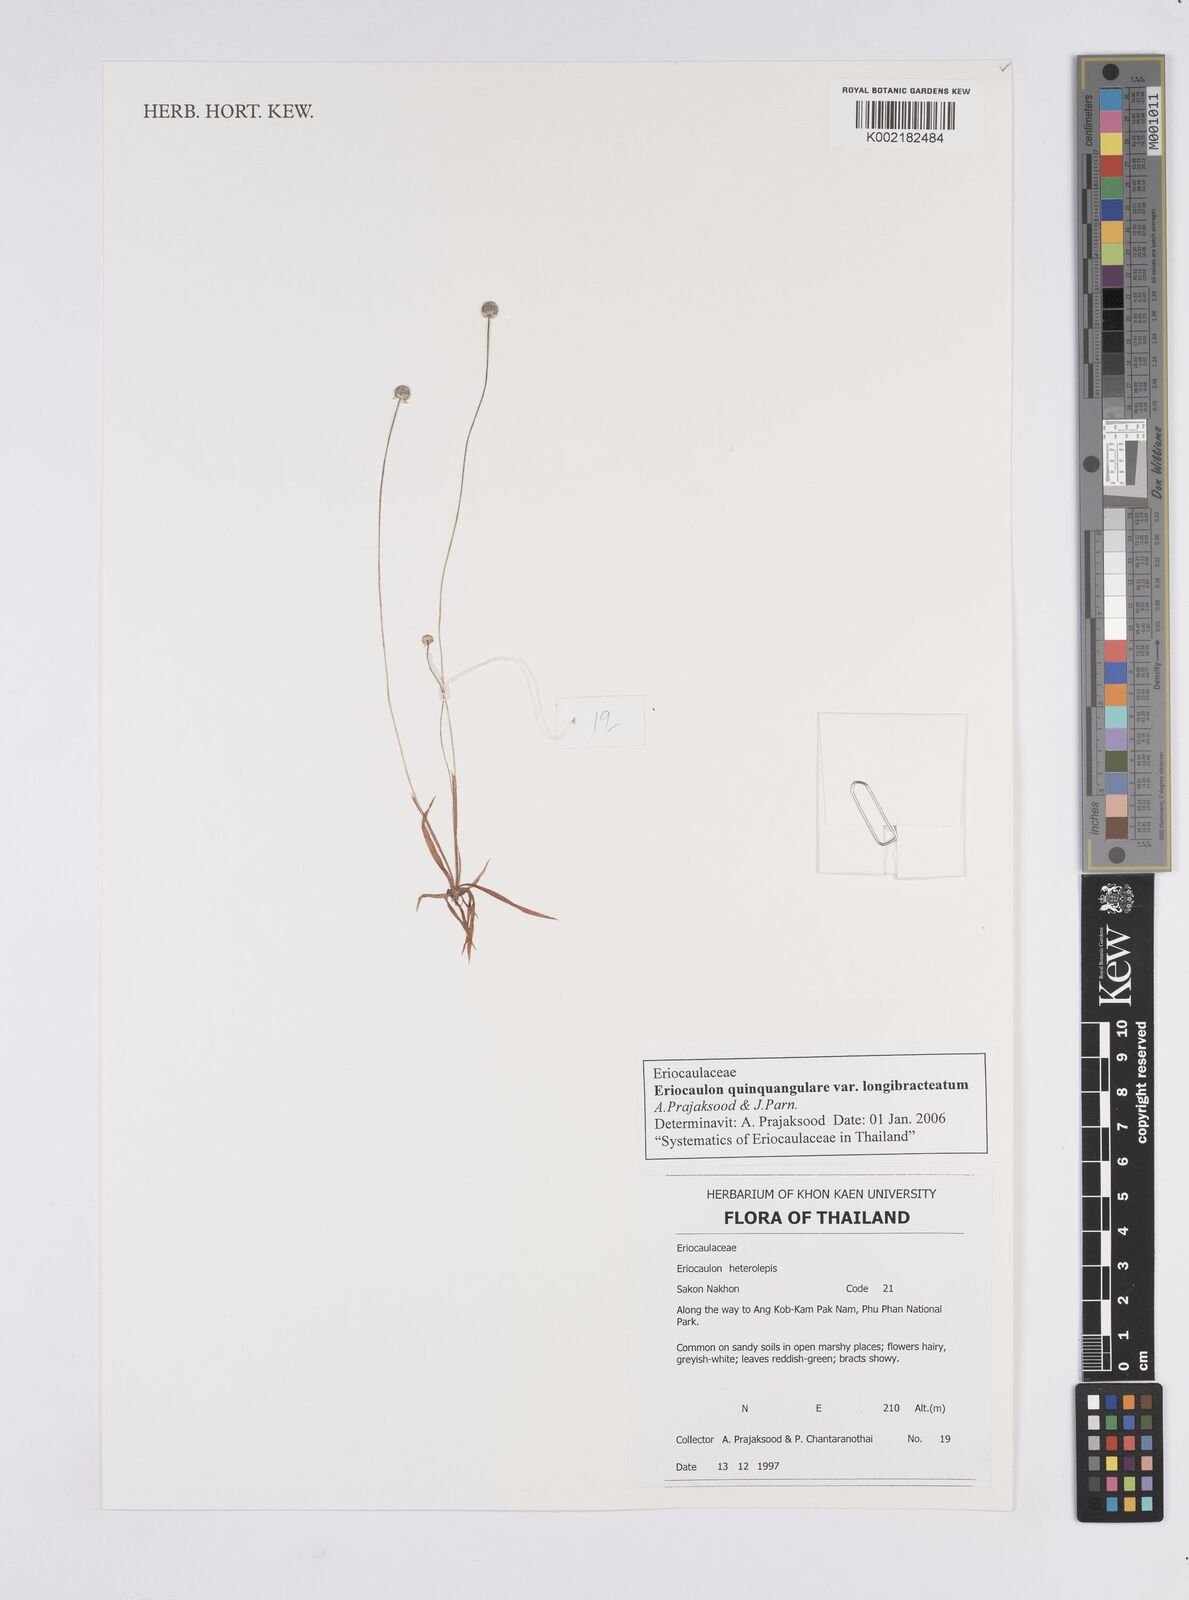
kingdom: Plantae
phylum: Tracheophyta
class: Liliopsida
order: Poales
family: Eriocaulaceae
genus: Eriocaulon
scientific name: Eriocaulon quinquangulare
